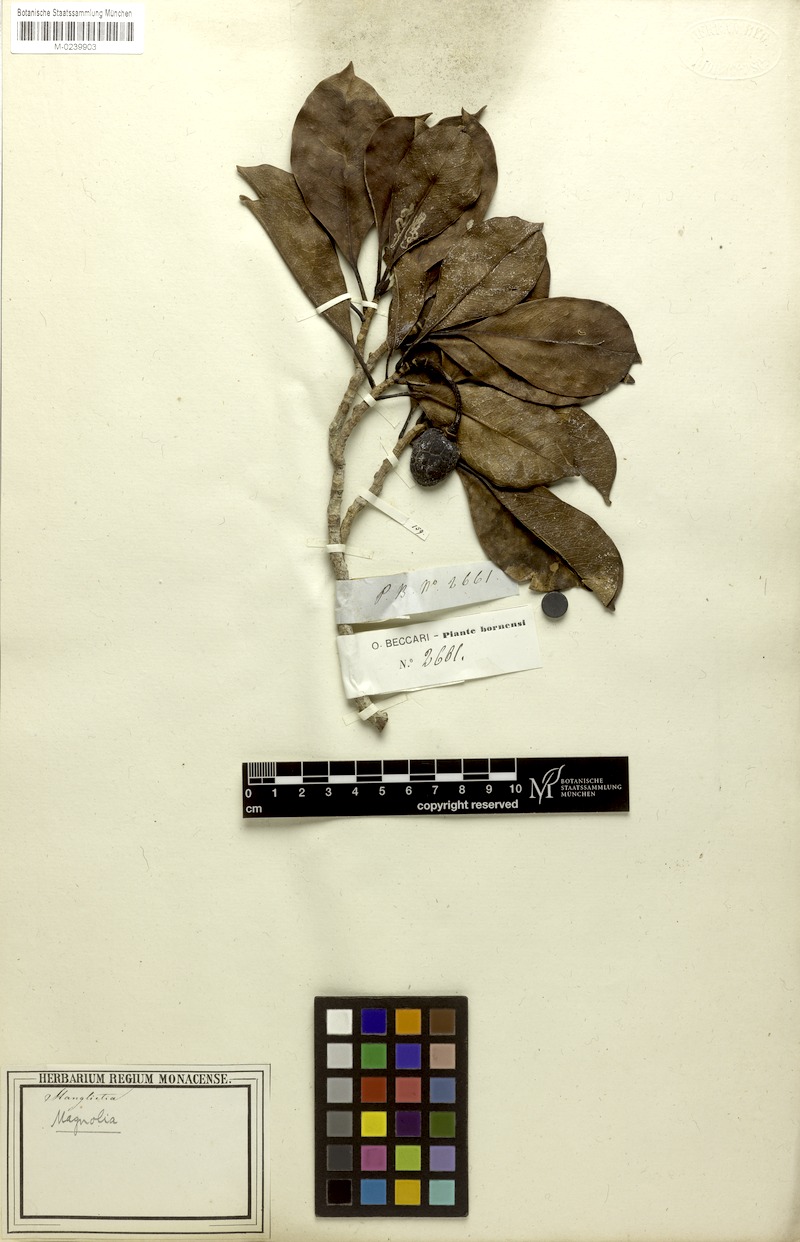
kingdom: Plantae
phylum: Tracheophyta
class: Magnoliopsida
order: Magnoliales
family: Magnoliaceae
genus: Magnolia
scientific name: Magnolia bintuluensis
